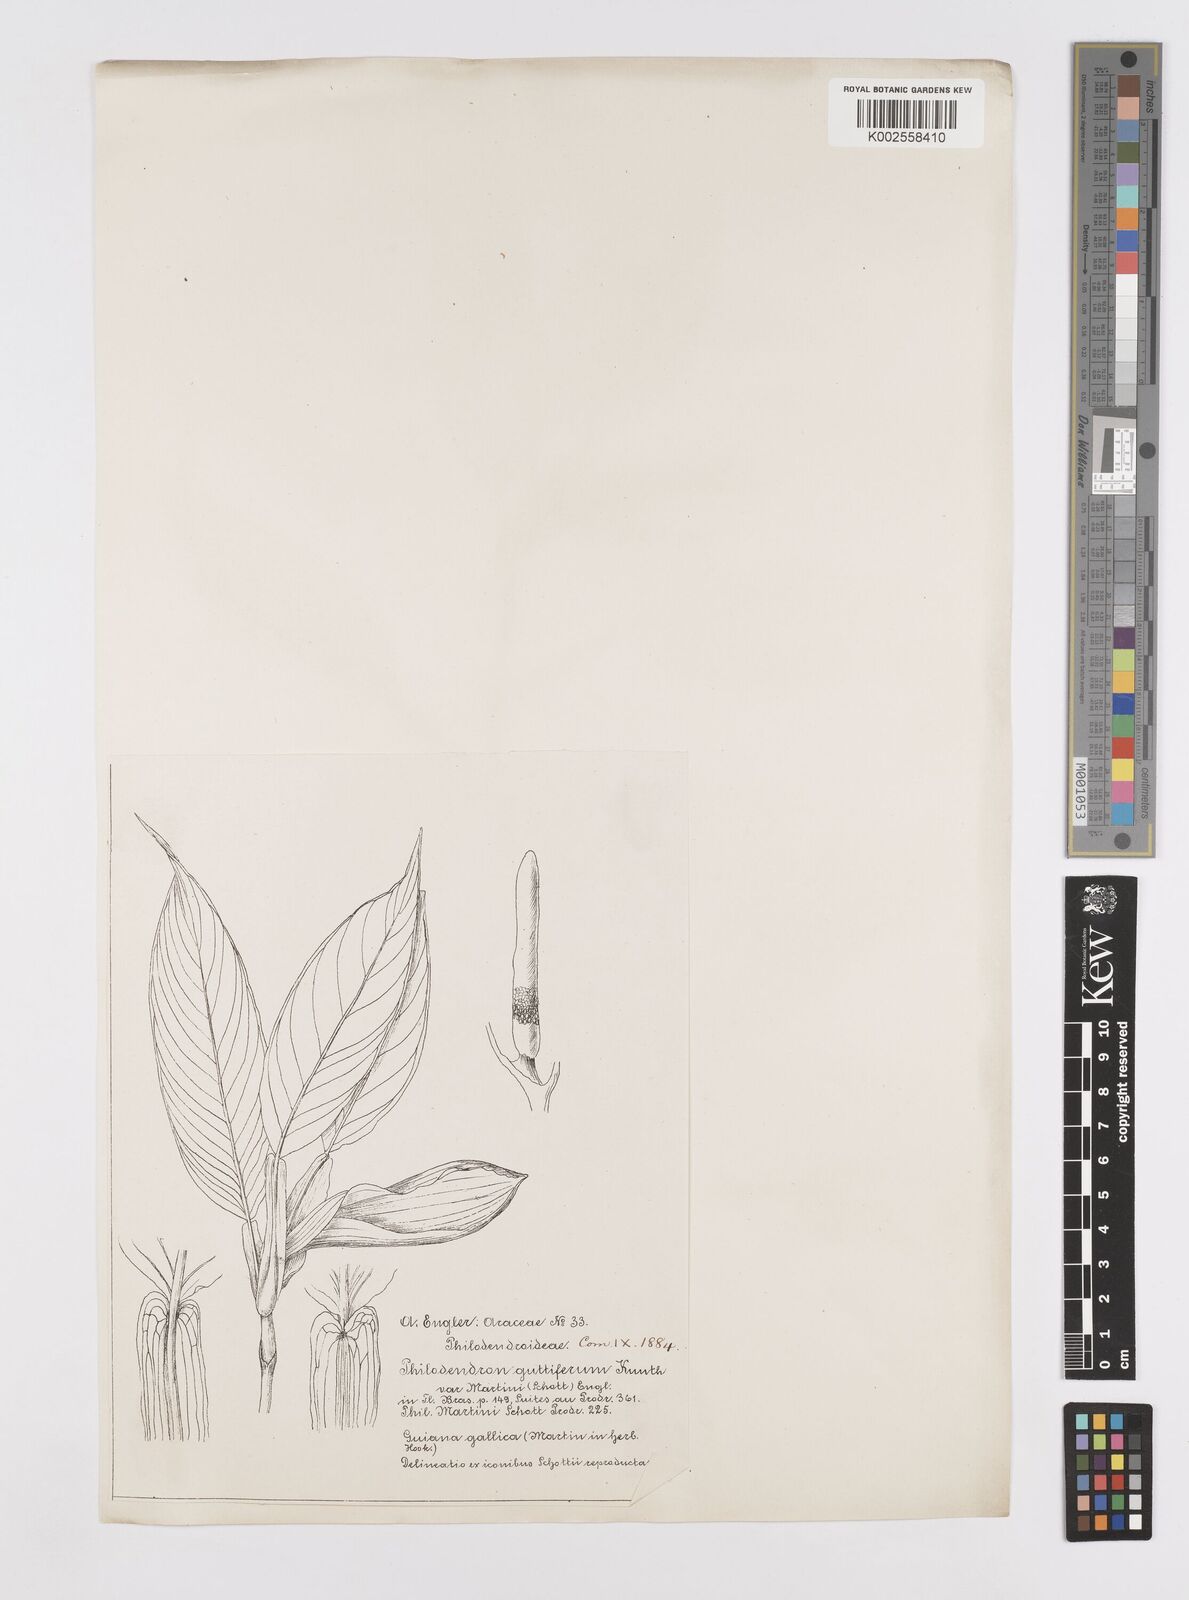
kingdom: Plantae
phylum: Tracheophyta
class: Liliopsida
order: Alismatales
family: Araceae
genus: Philodendron
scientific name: Philodendron rudgeanum
